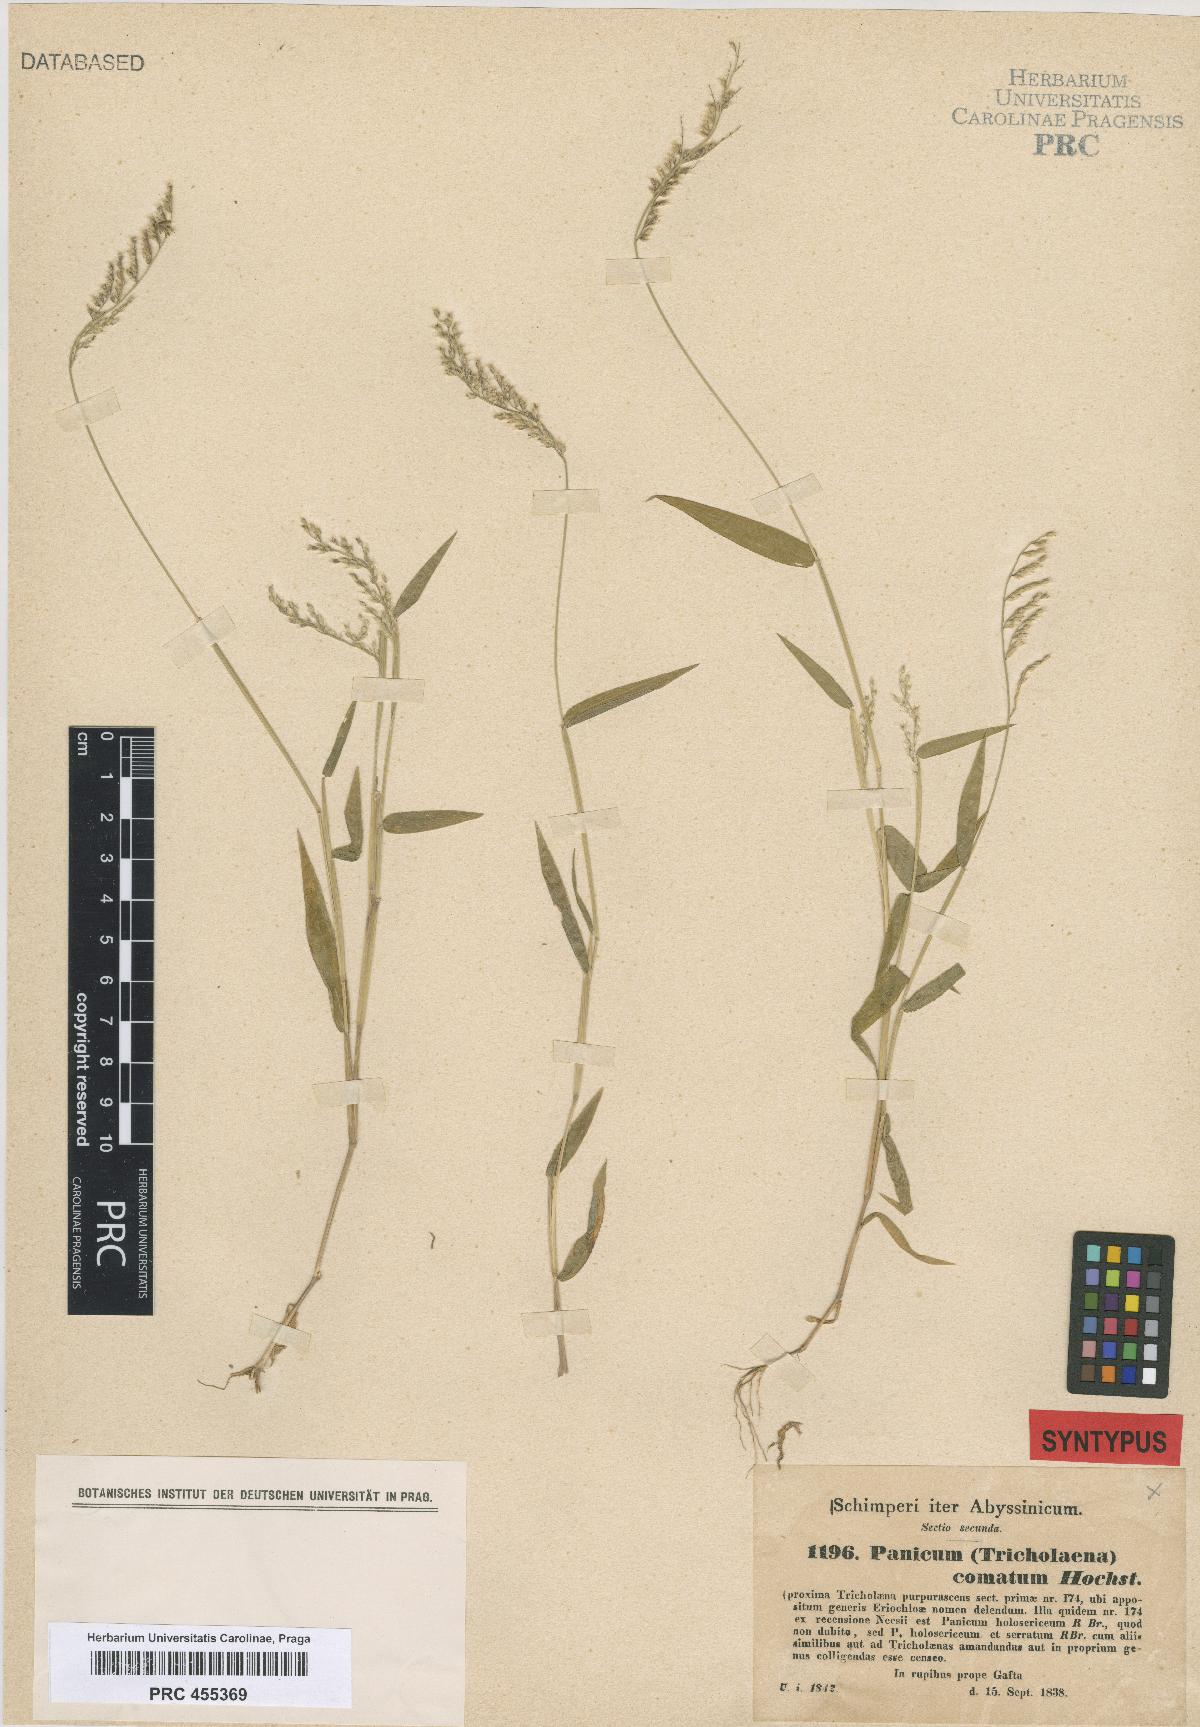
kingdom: Plantae
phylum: Tracheophyta
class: Liliopsida
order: Poales
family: Poaceae
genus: Urochloa
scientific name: Urochloa comata
